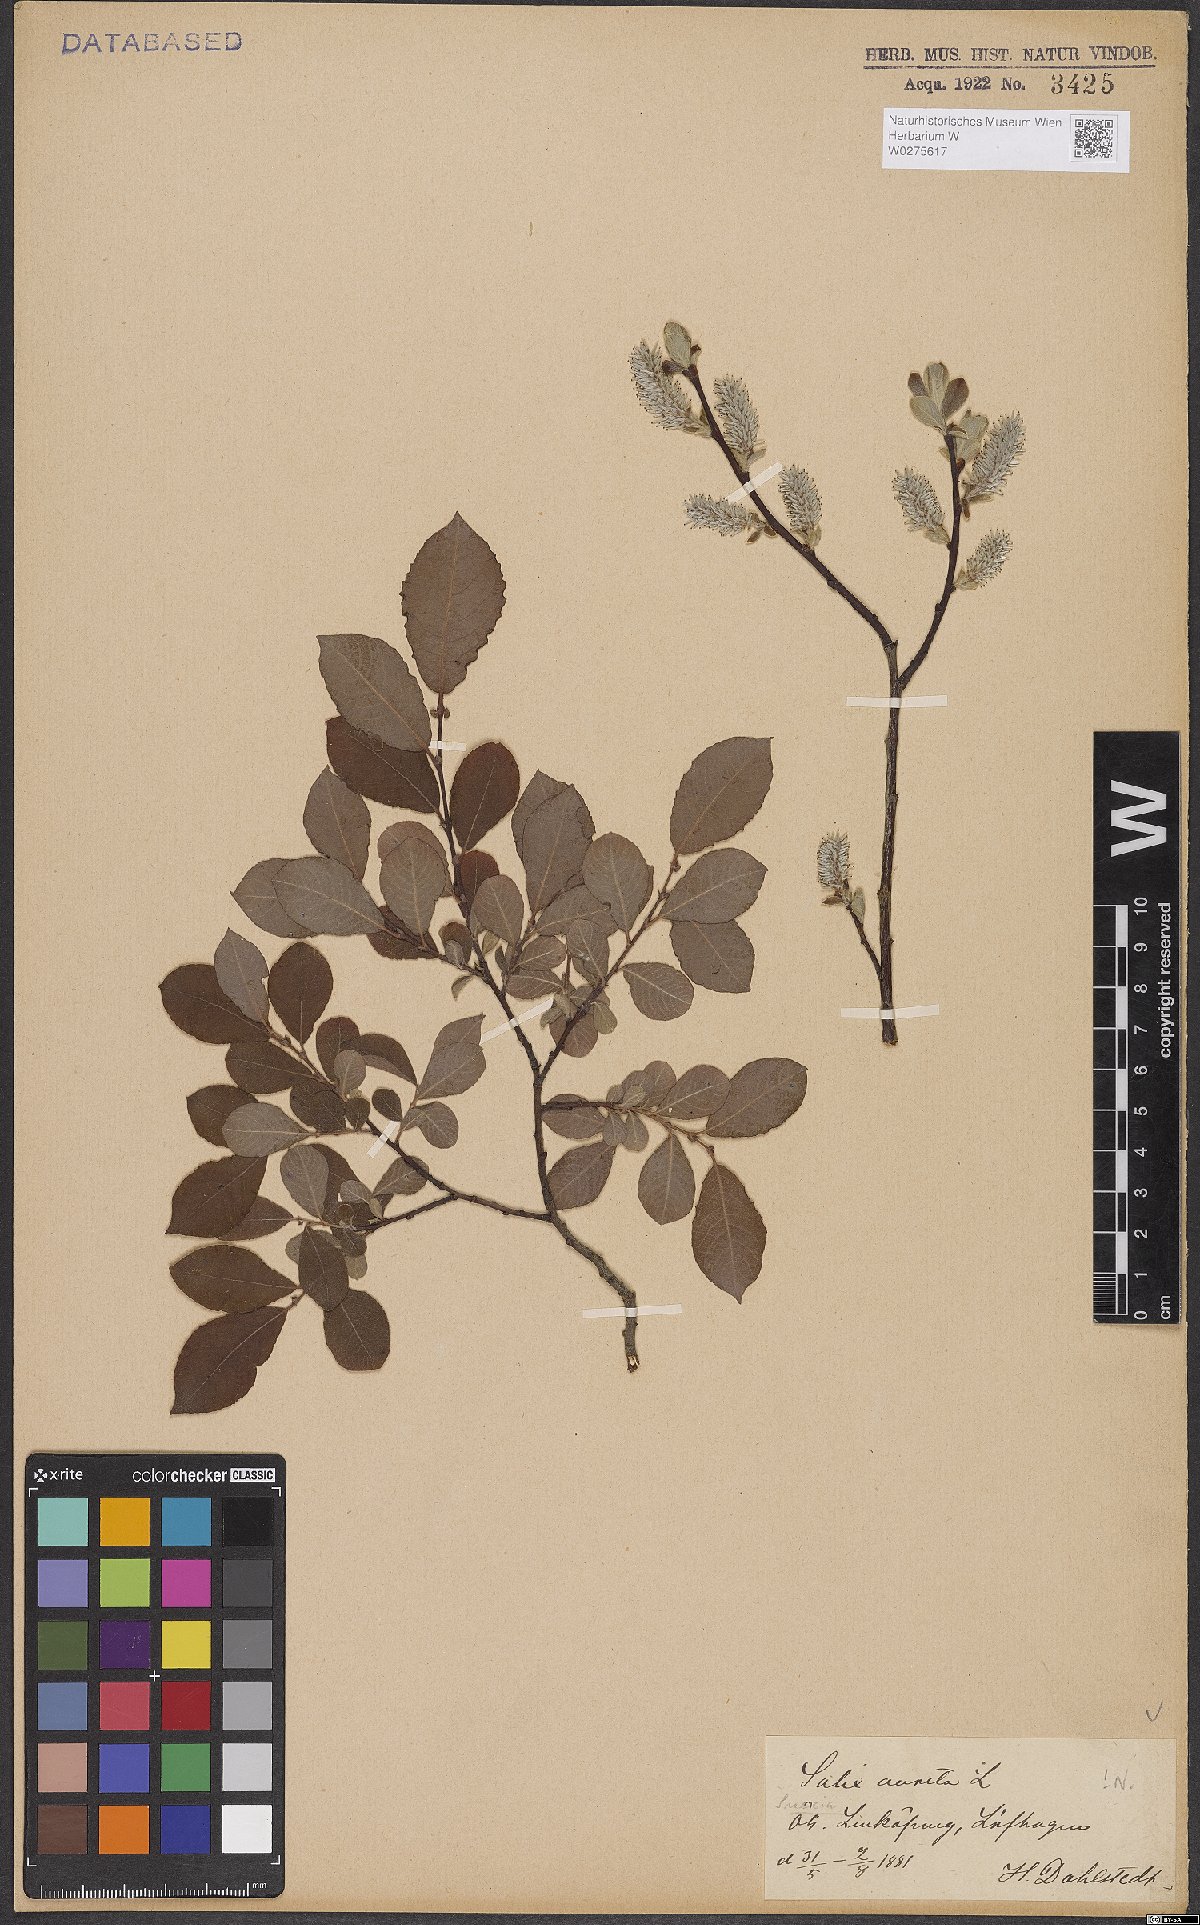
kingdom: Plantae
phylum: Tracheophyta
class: Magnoliopsida
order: Malpighiales
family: Salicaceae
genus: Salix
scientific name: Salix aurita
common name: Eared willow
